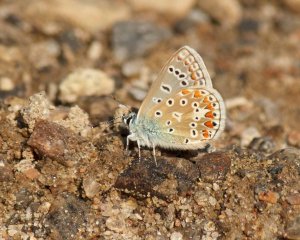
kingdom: Animalia
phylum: Arthropoda
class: Insecta
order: Lepidoptera
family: Lycaenidae
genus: Polyommatus
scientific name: Polyommatus icarus
